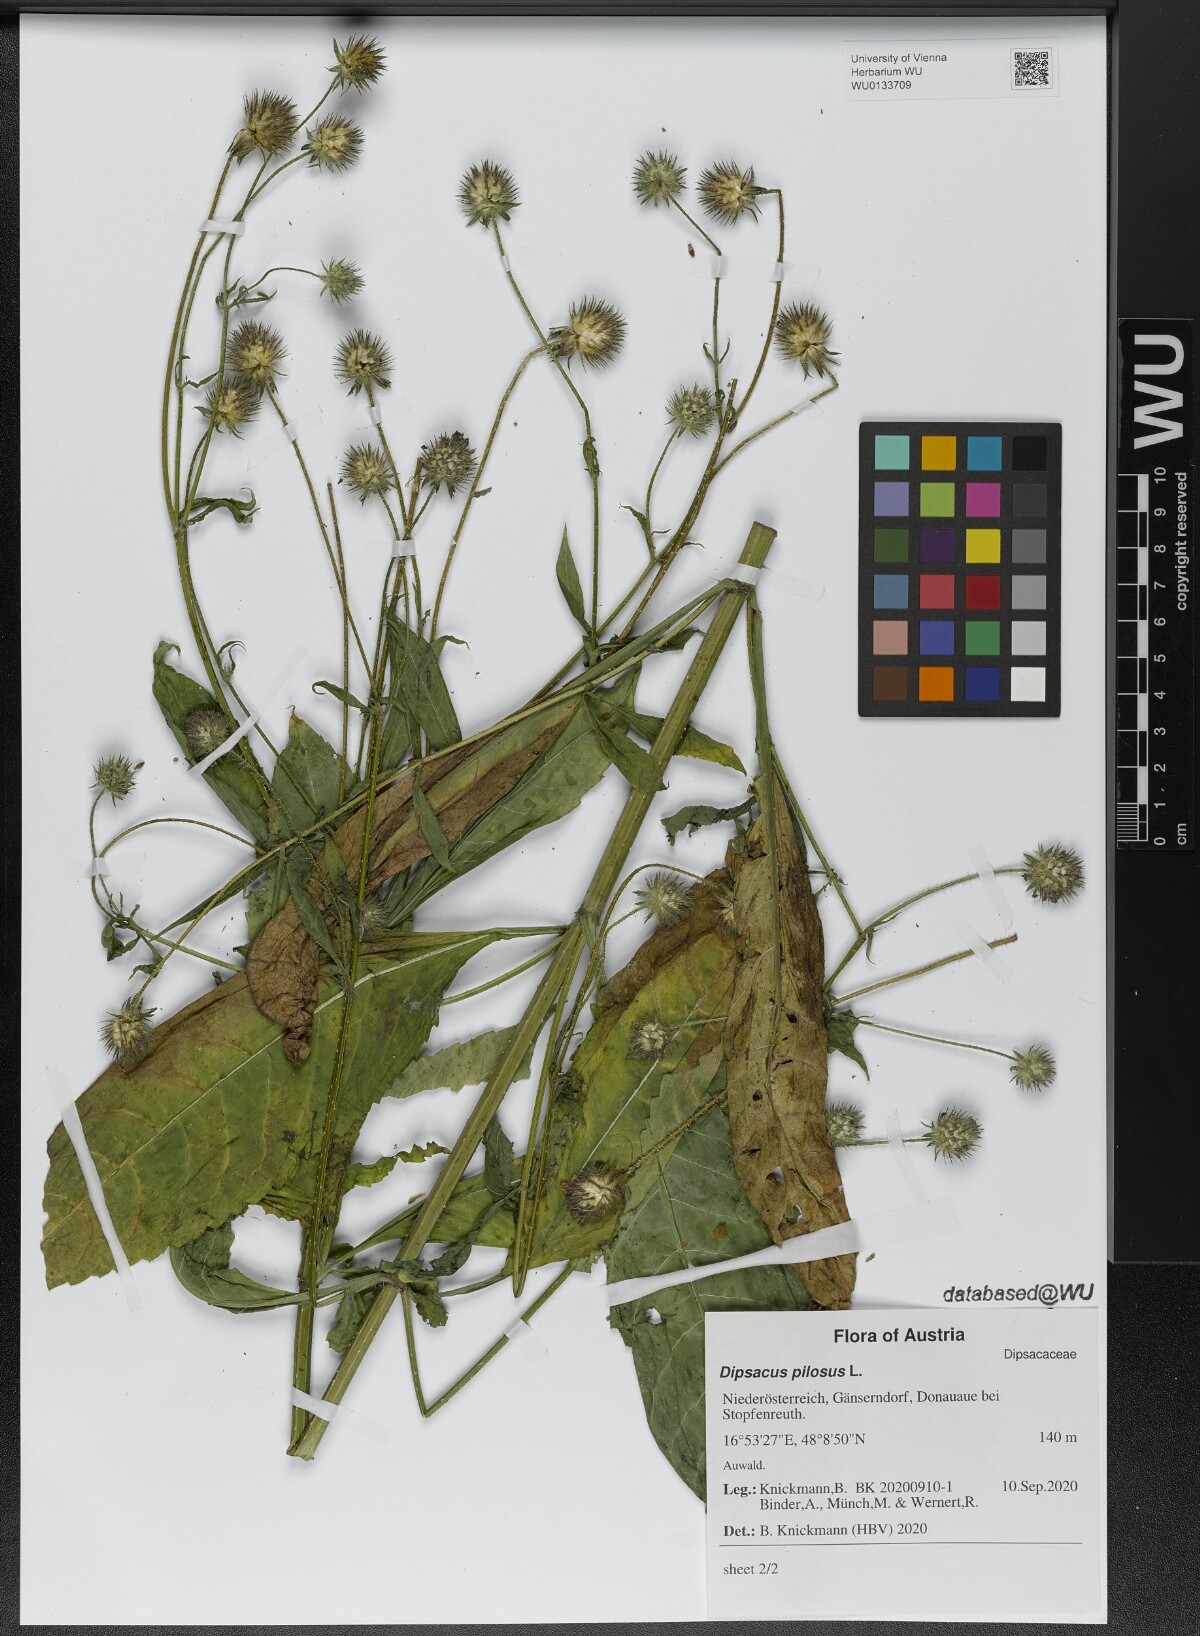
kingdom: Plantae
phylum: Tracheophyta
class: Magnoliopsida
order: Dipsacales
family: Caprifoliaceae
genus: Dipsacus
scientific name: Dipsacus pilosus
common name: Small teasel
